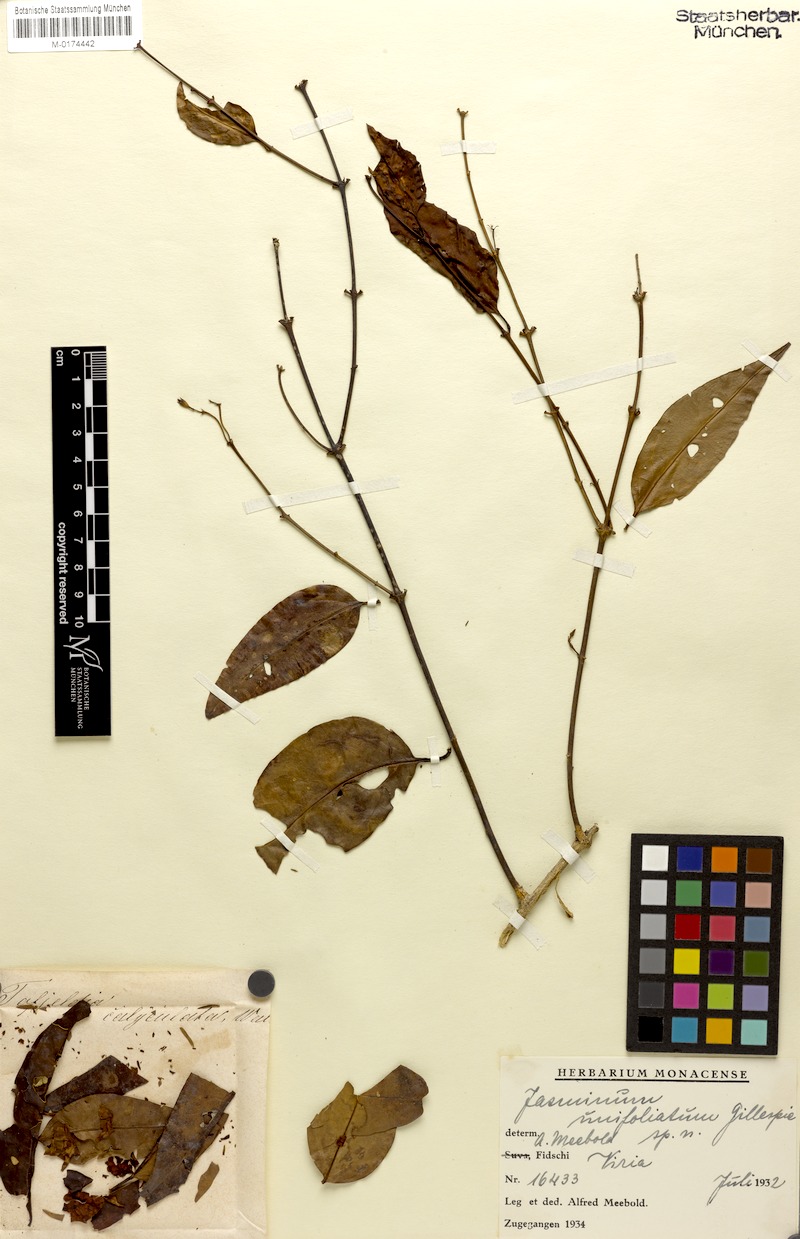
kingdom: Plantae
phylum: Tracheophyta
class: Magnoliopsida
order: Lamiales
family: Oleaceae
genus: Jasminum
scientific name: Jasminum betchei
